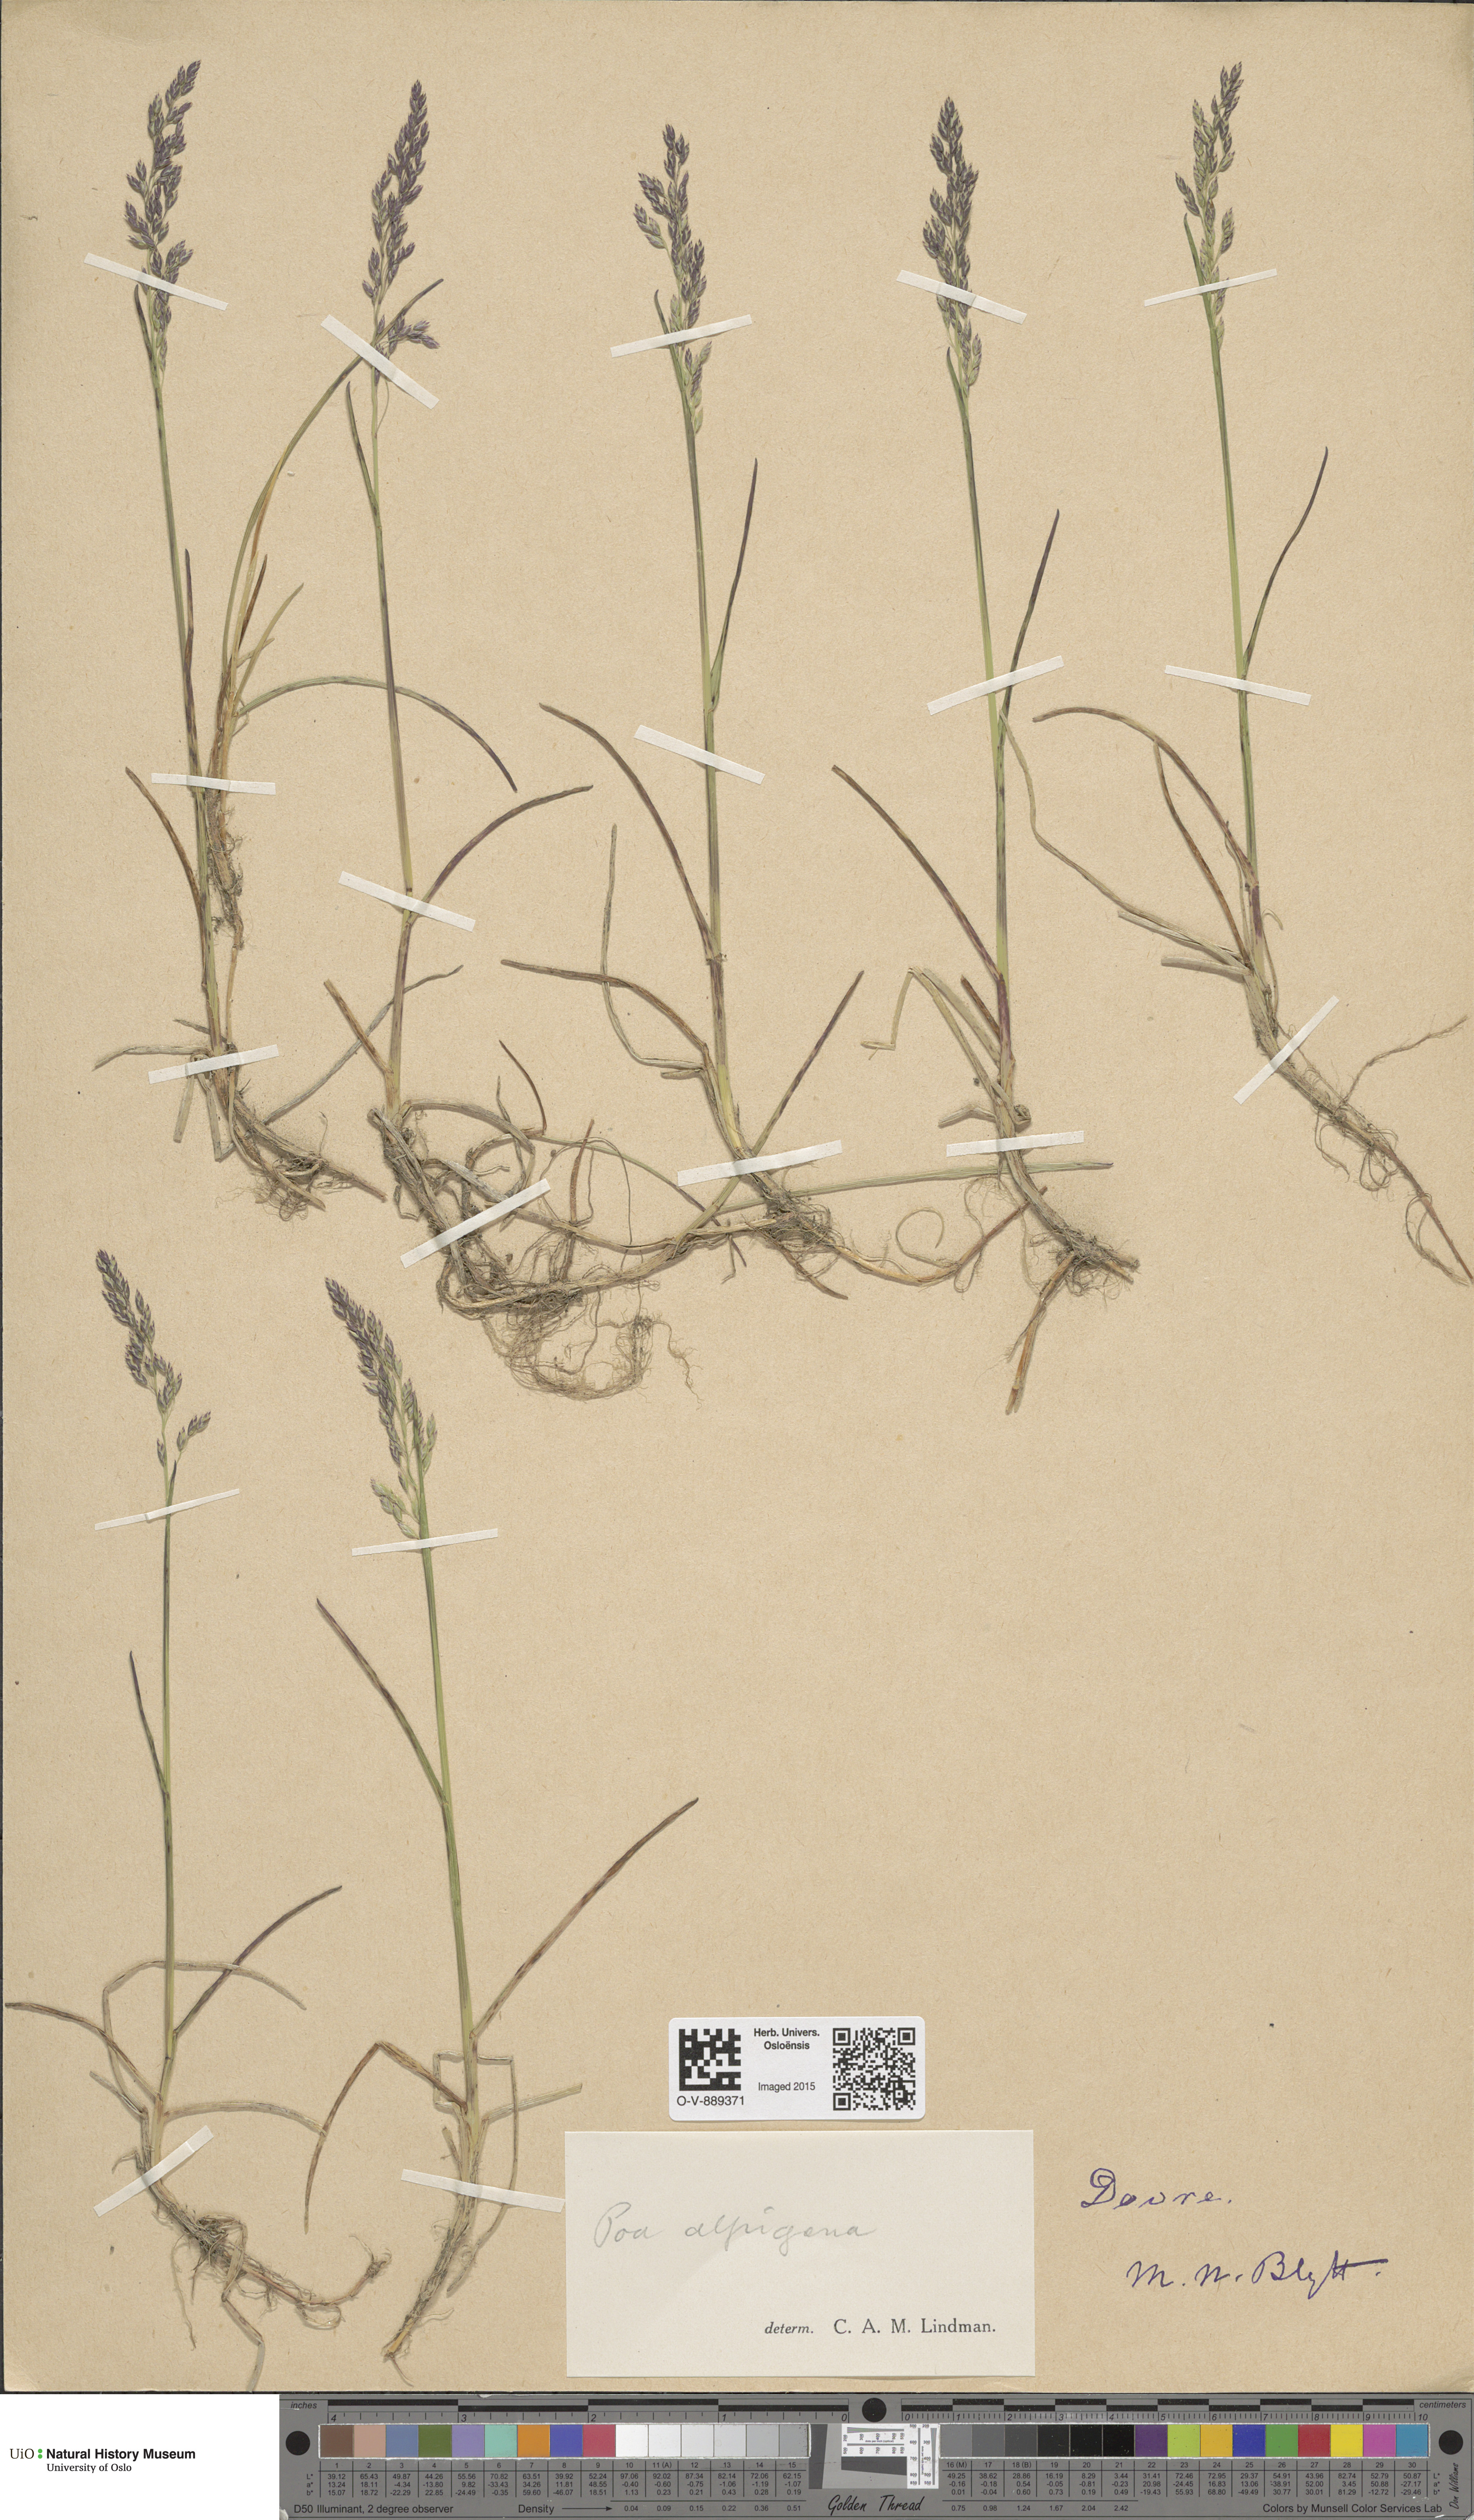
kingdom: Plantae
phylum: Tracheophyta
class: Liliopsida
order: Poales
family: Poaceae
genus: Poa
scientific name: Poa alpigena
